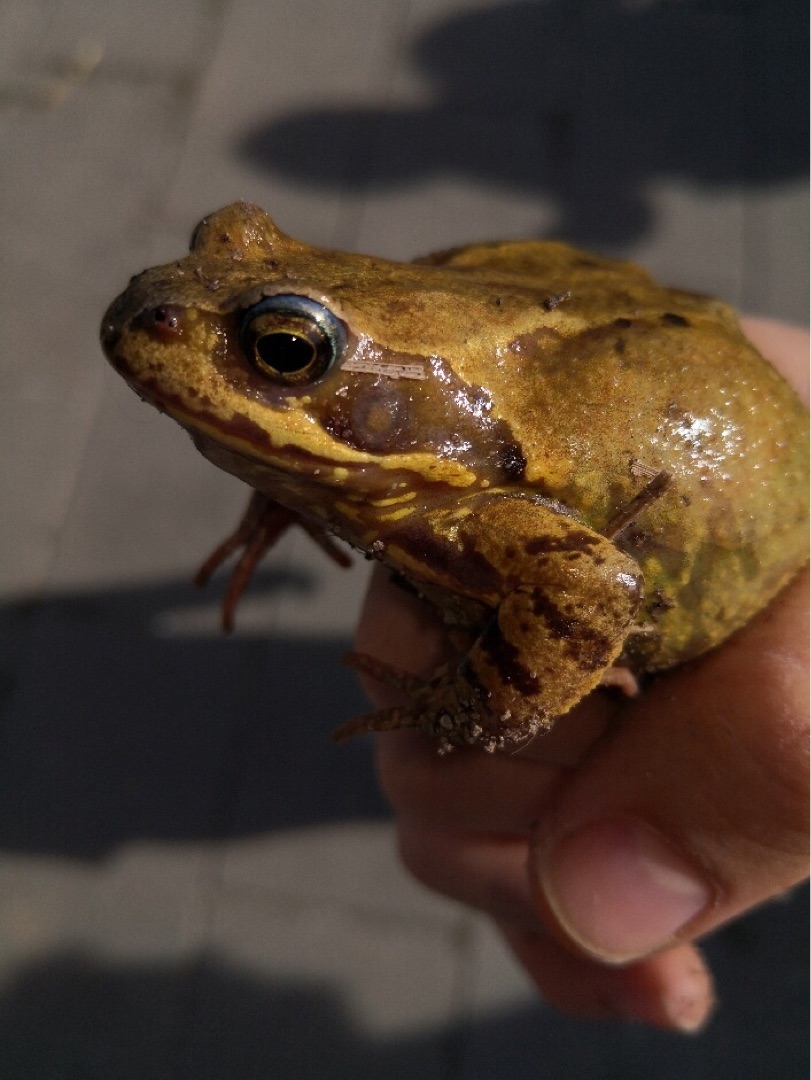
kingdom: Animalia
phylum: Chordata
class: Amphibia
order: Anura
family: Ranidae
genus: Rana
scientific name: Rana temporaria
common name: Butsnudet frø
